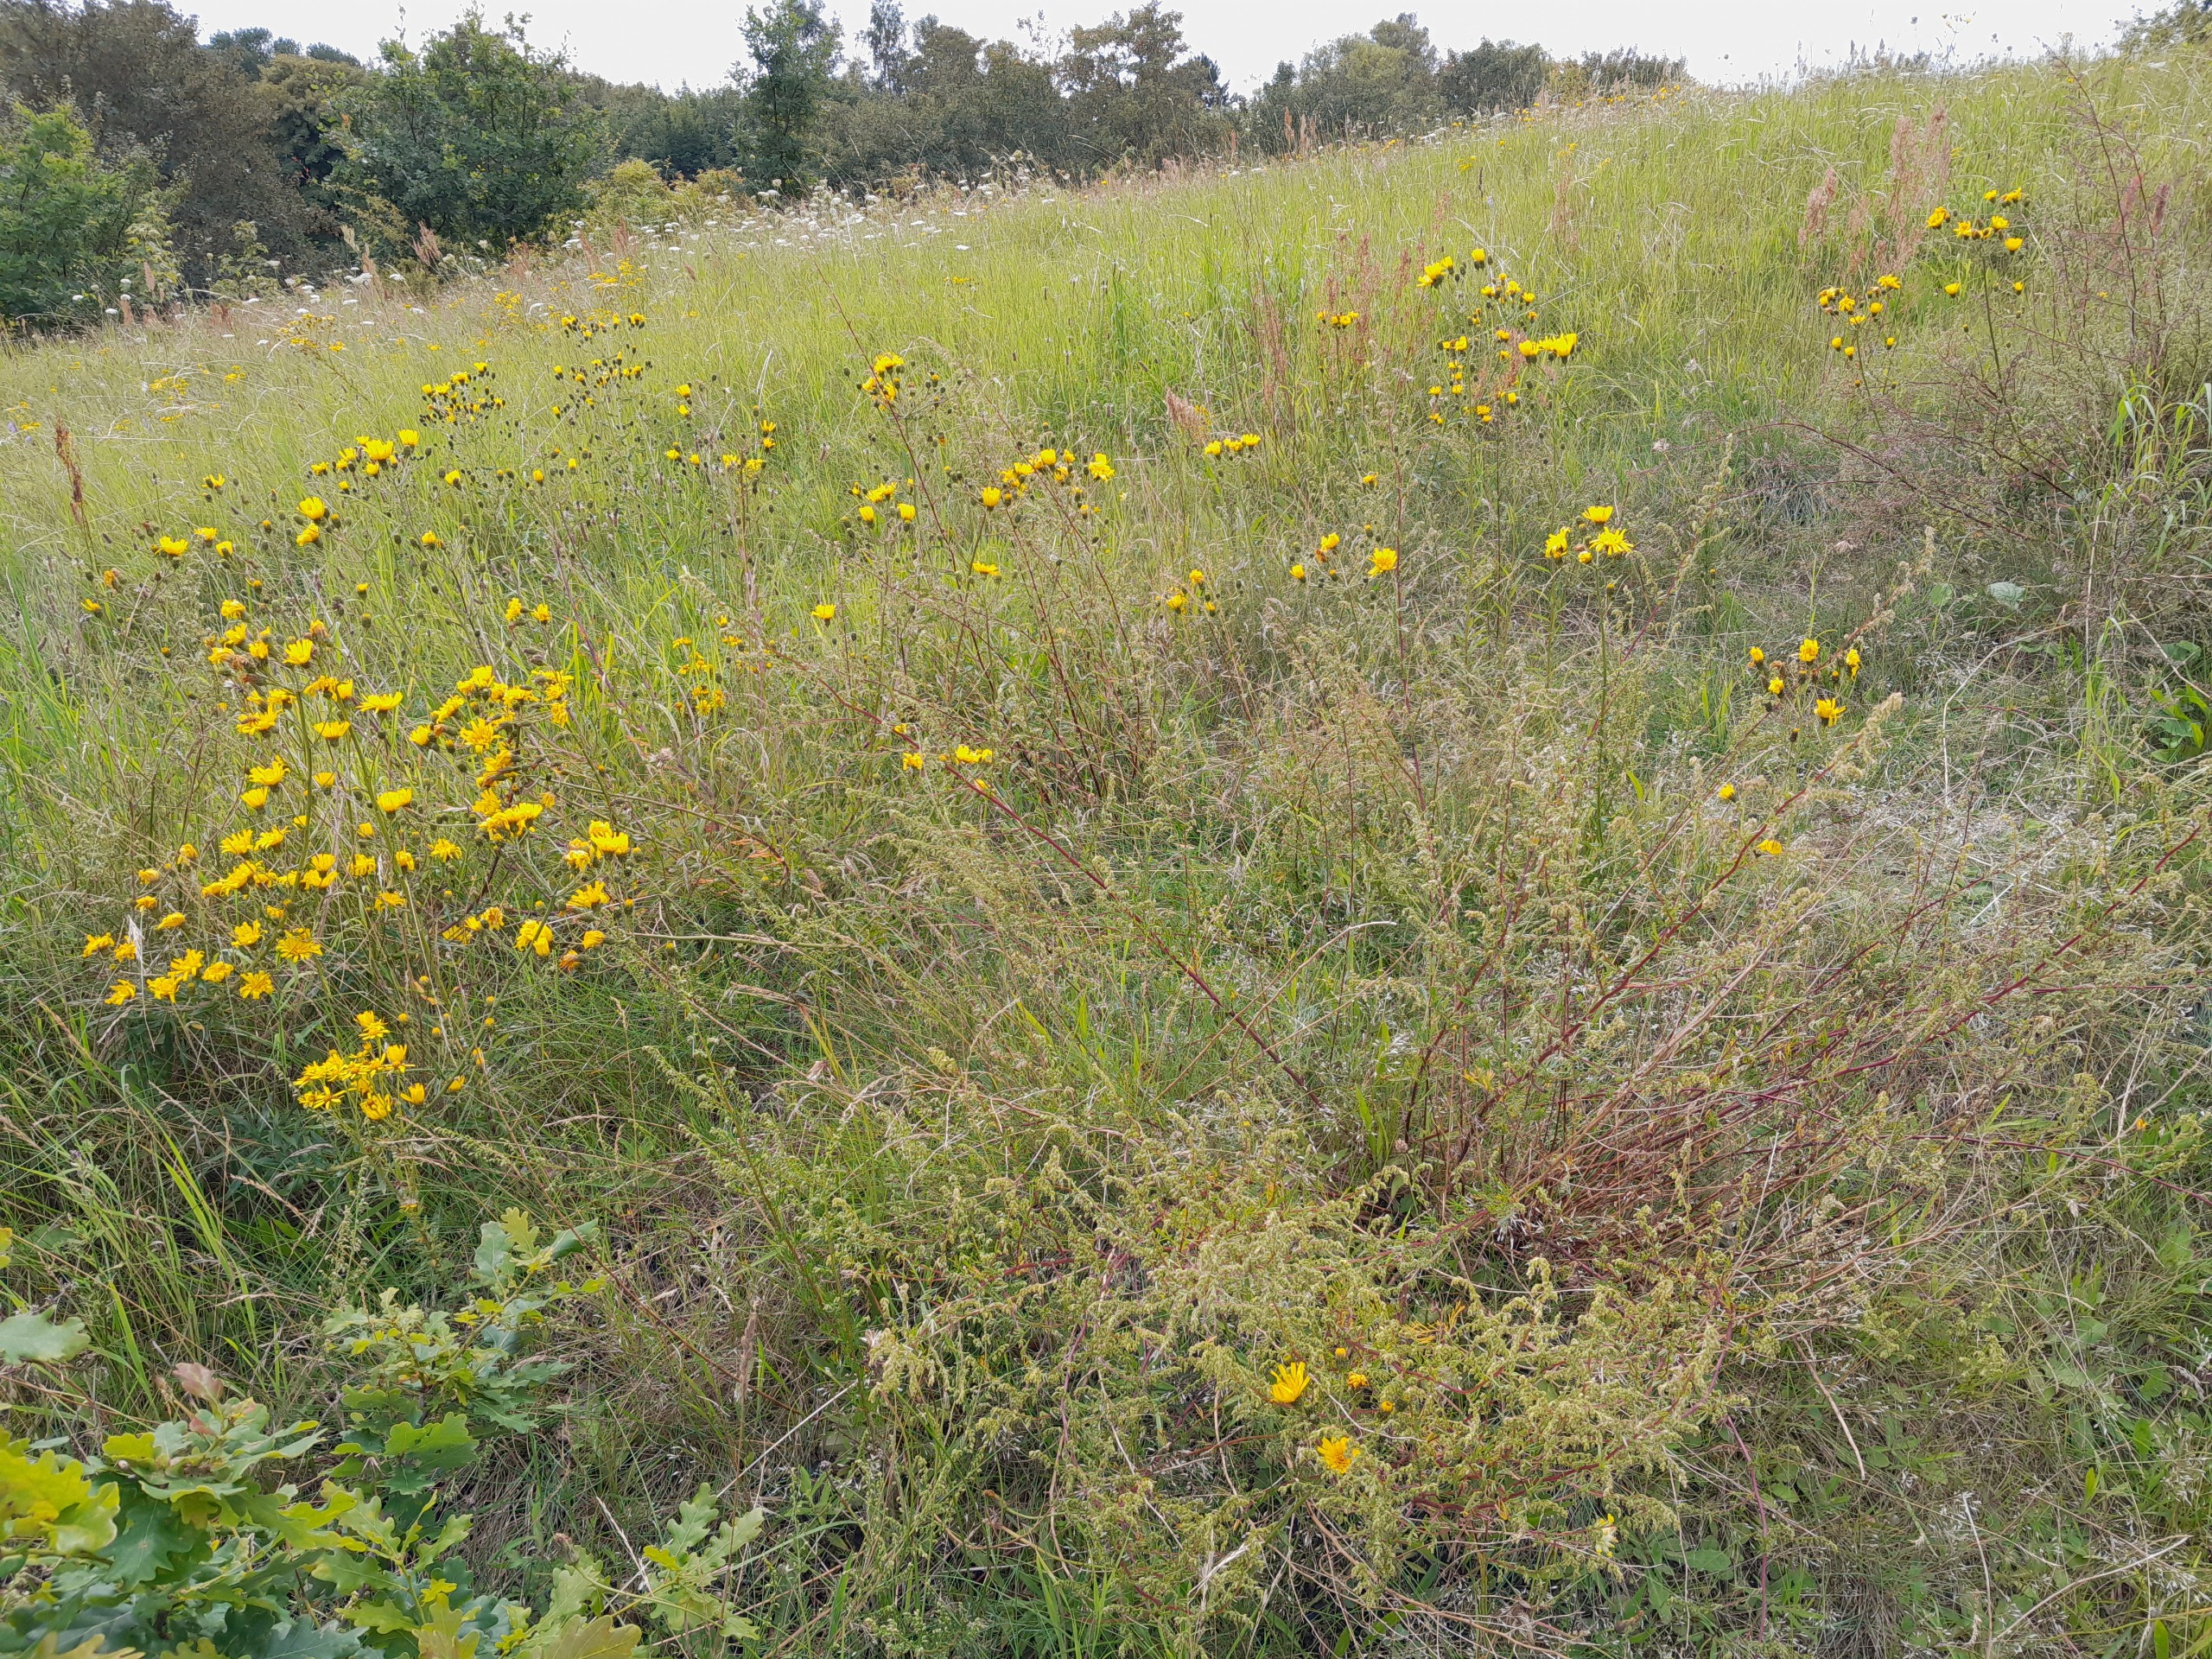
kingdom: Plantae
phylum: Tracheophyta
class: Magnoliopsida
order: Asterales
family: Asteraceae
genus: Artemisia
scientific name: Artemisia campestris
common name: Mark-bynke
